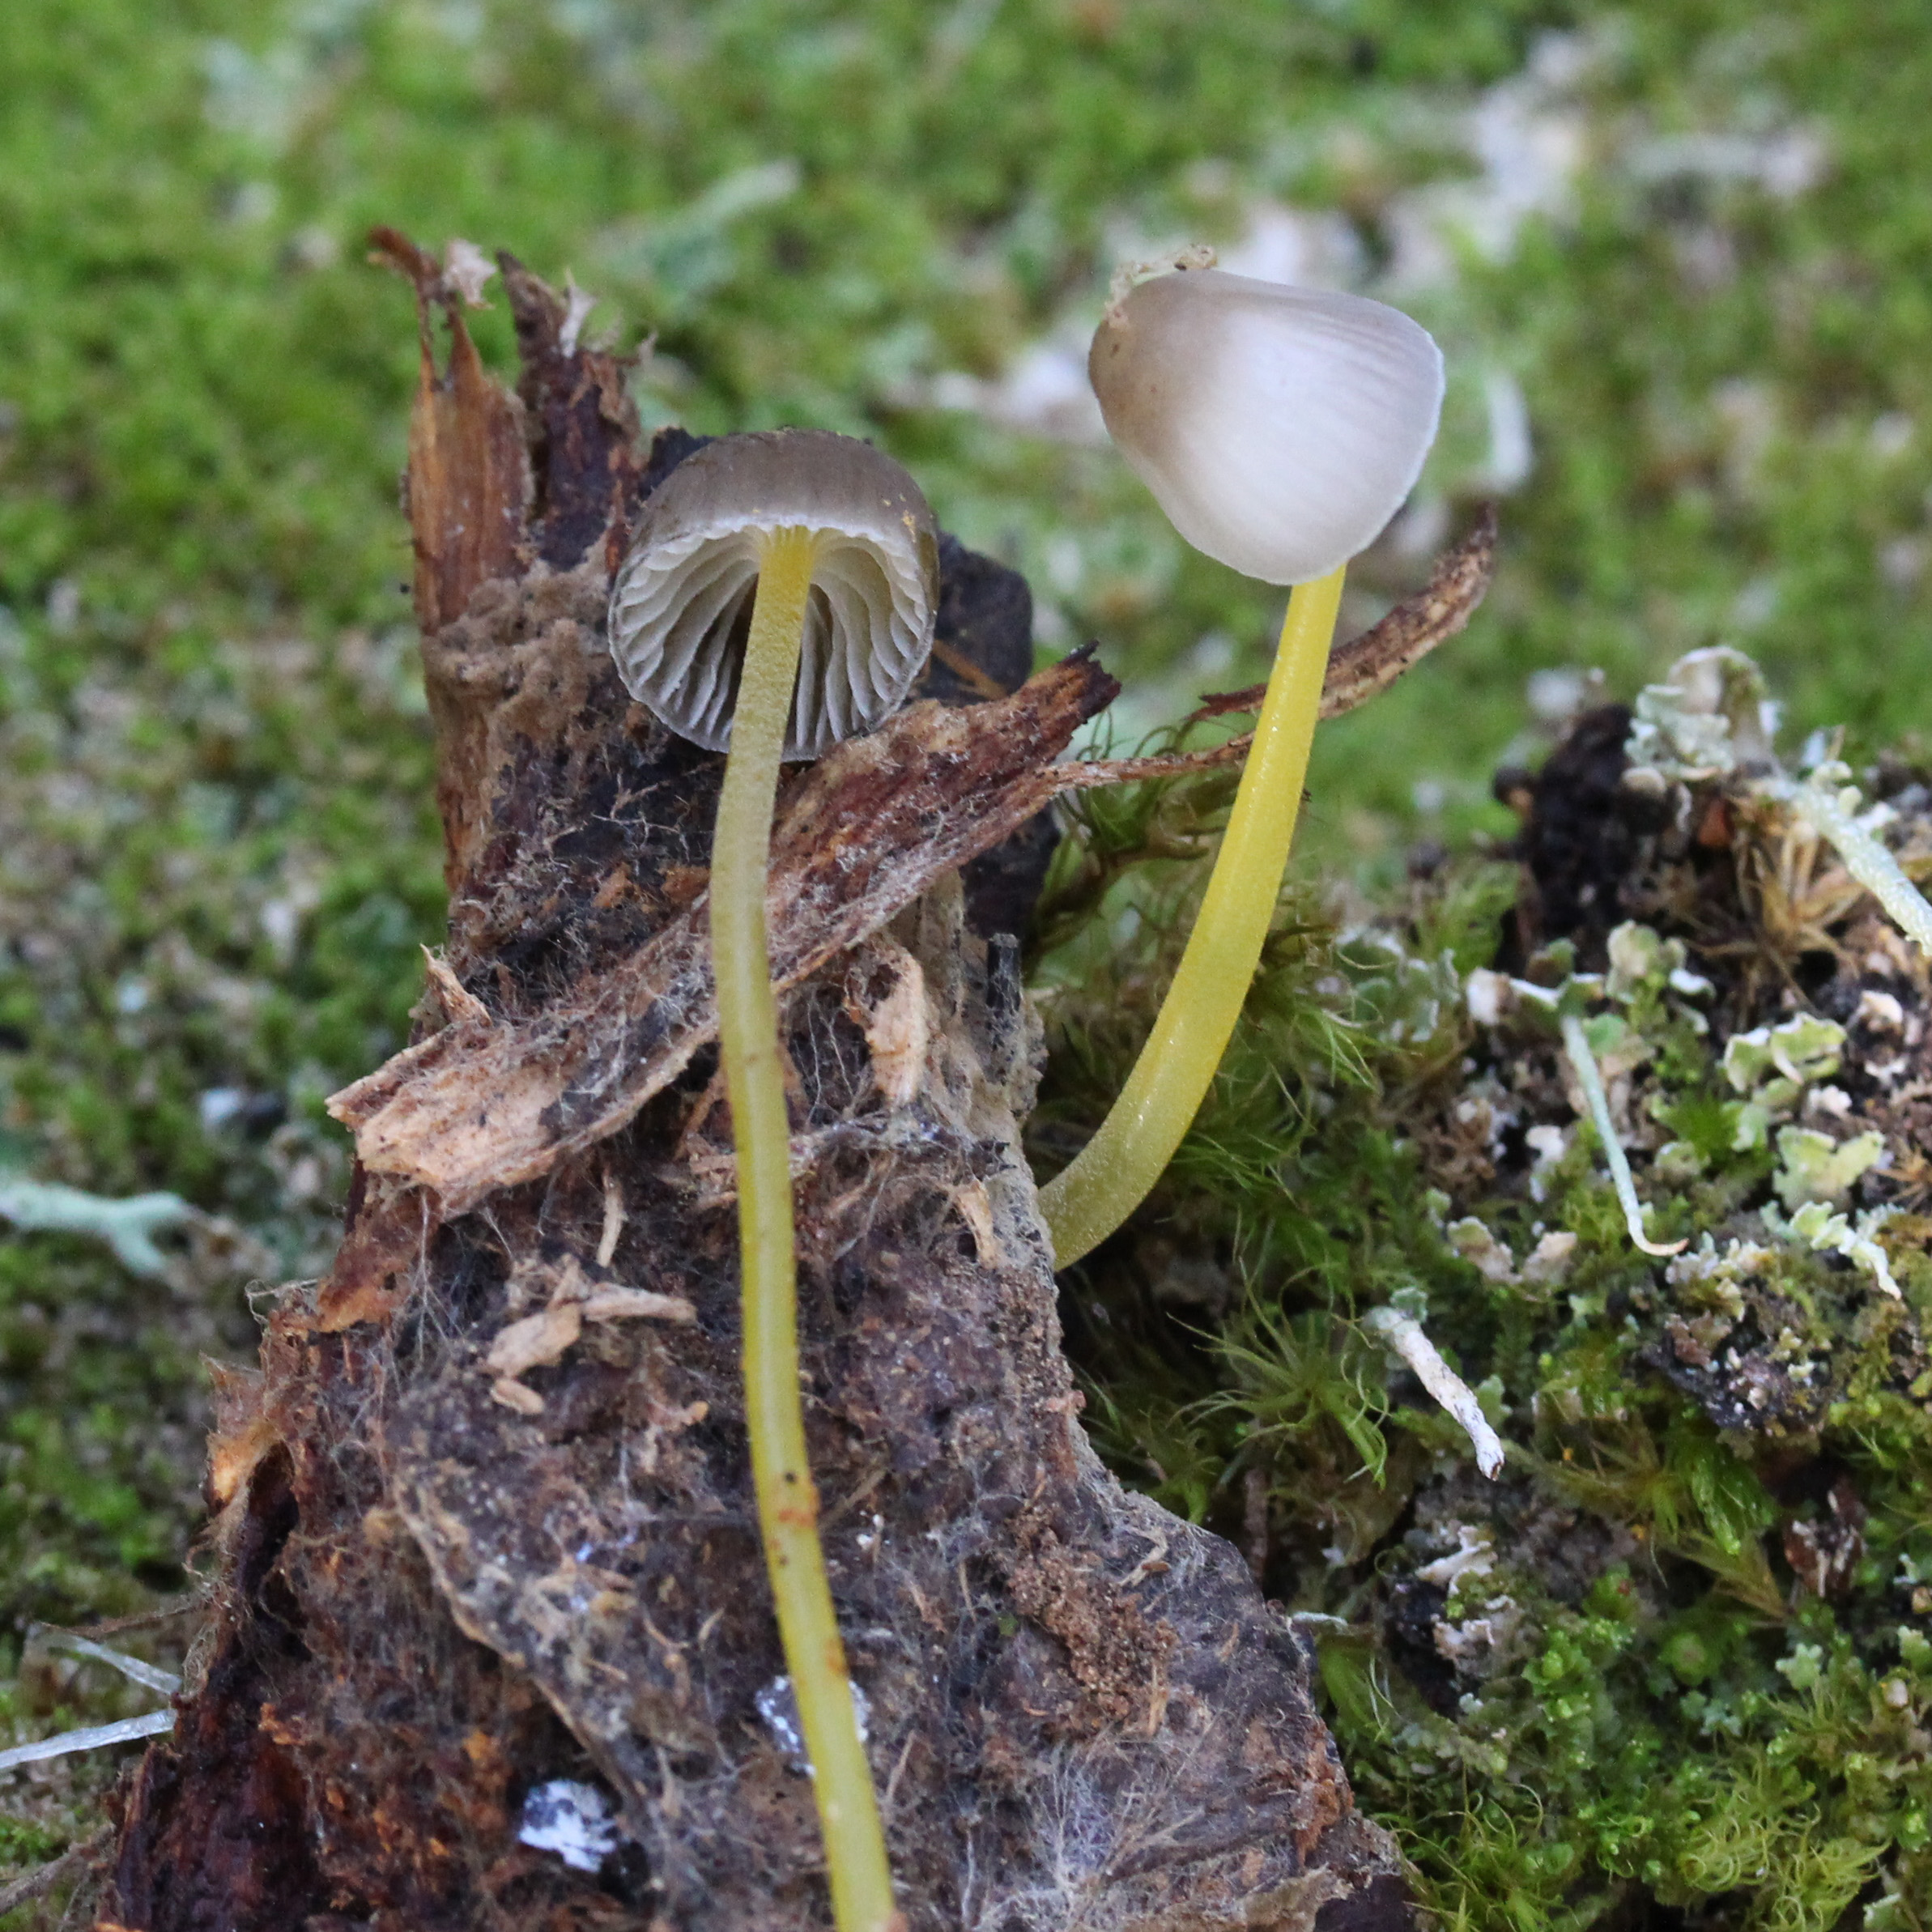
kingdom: Fungi
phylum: Basidiomycota
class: Agaricomycetes
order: Agaricales
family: Mycenaceae
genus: Mycena
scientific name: Mycena epipterygia
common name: Yellowleg bonnet
